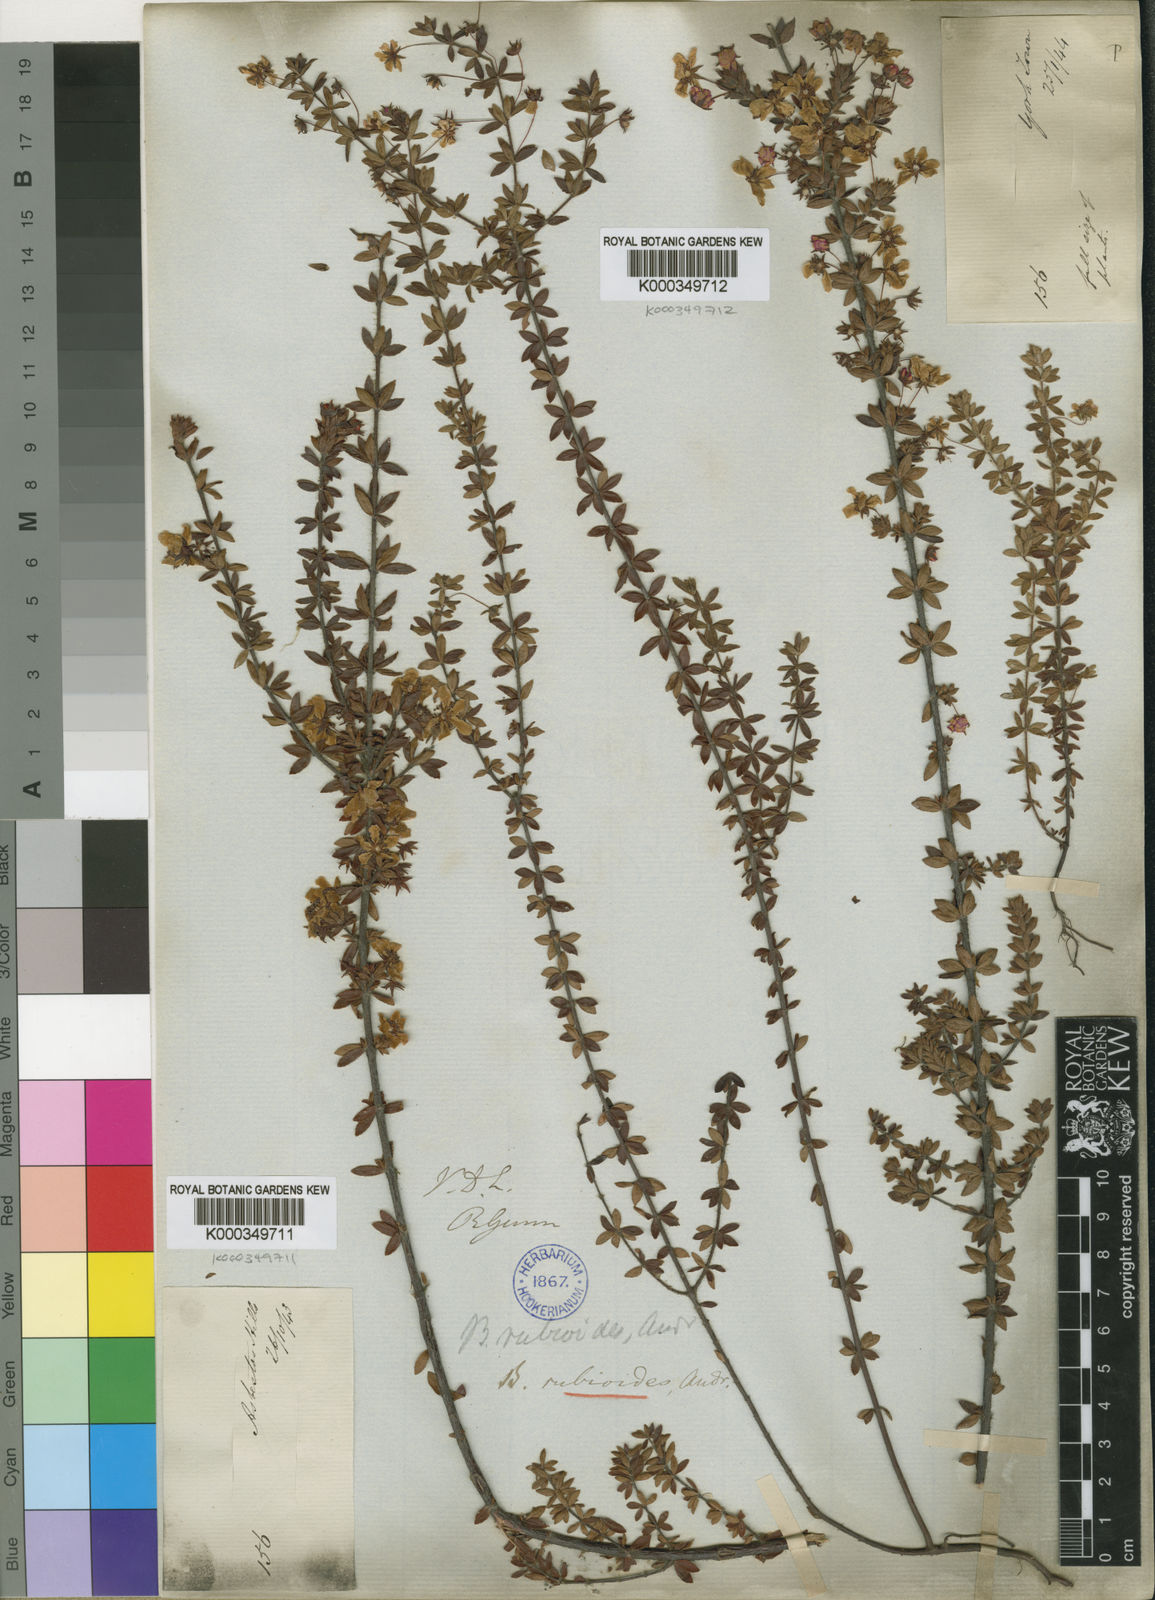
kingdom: Plantae
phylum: Tracheophyta
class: Magnoliopsida
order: Oxalidales
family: Cunoniaceae
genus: Bauera
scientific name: Bauera rubioides
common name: River-rose
